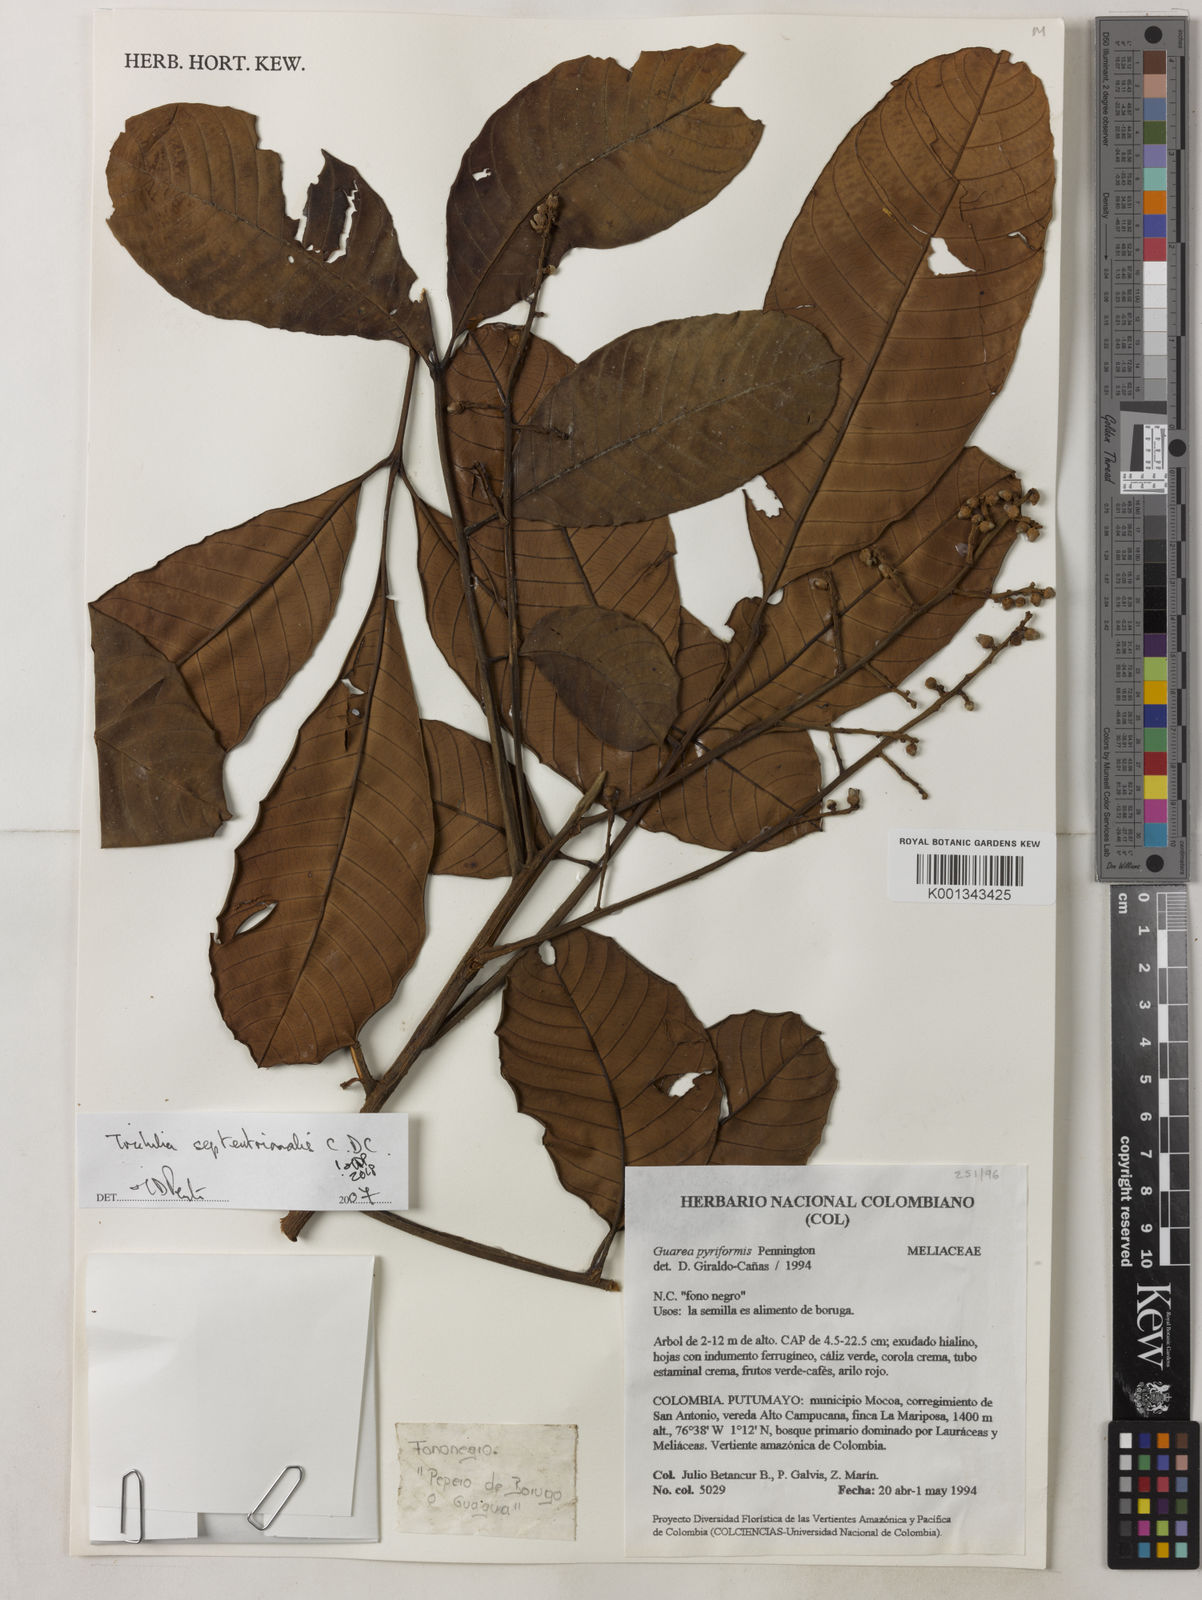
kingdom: Plantae
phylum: Tracheophyta
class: Magnoliopsida
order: Sapindales
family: Meliaceae
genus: Trichilia
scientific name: Trichilia septentrionalis
